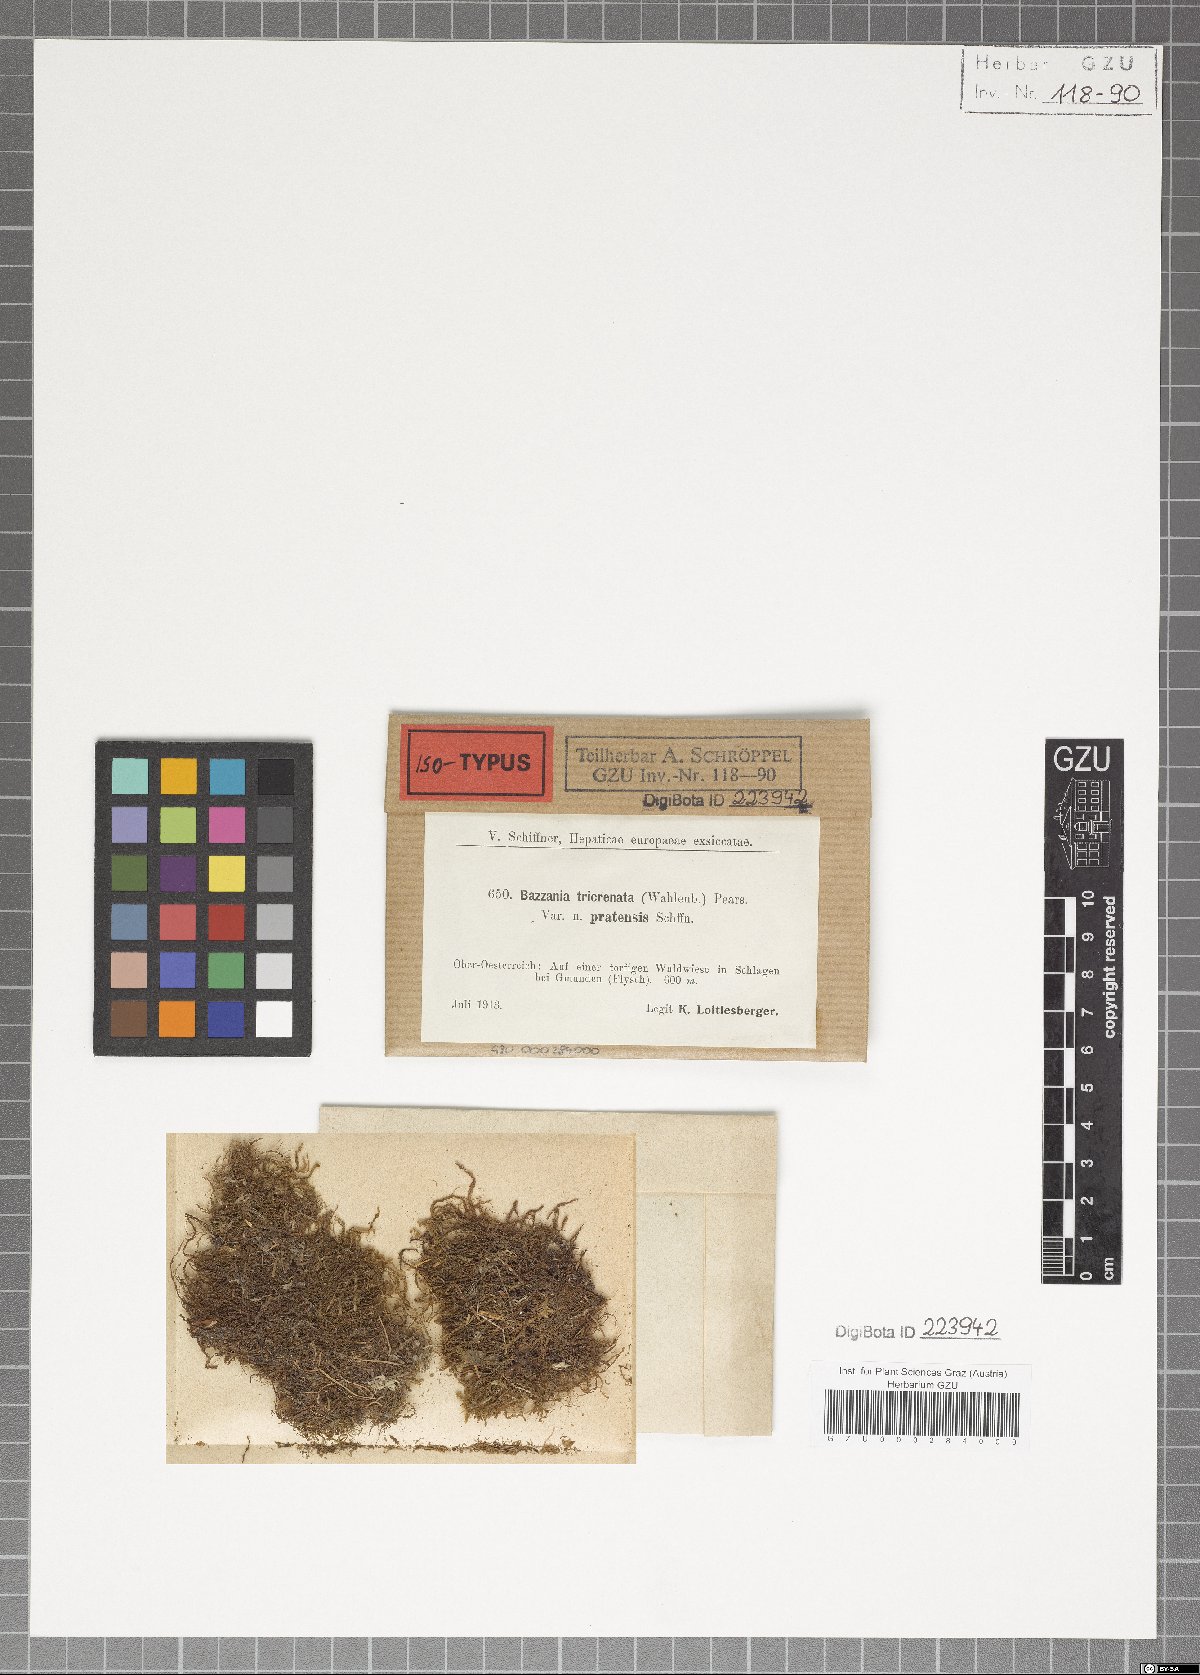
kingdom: Plantae
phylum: Marchantiophyta
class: Jungermanniopsida
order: Jungermanniales
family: Lepidoziaceae
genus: Bazzania
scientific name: Bazzania tricrenata
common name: Lesser whipwort
